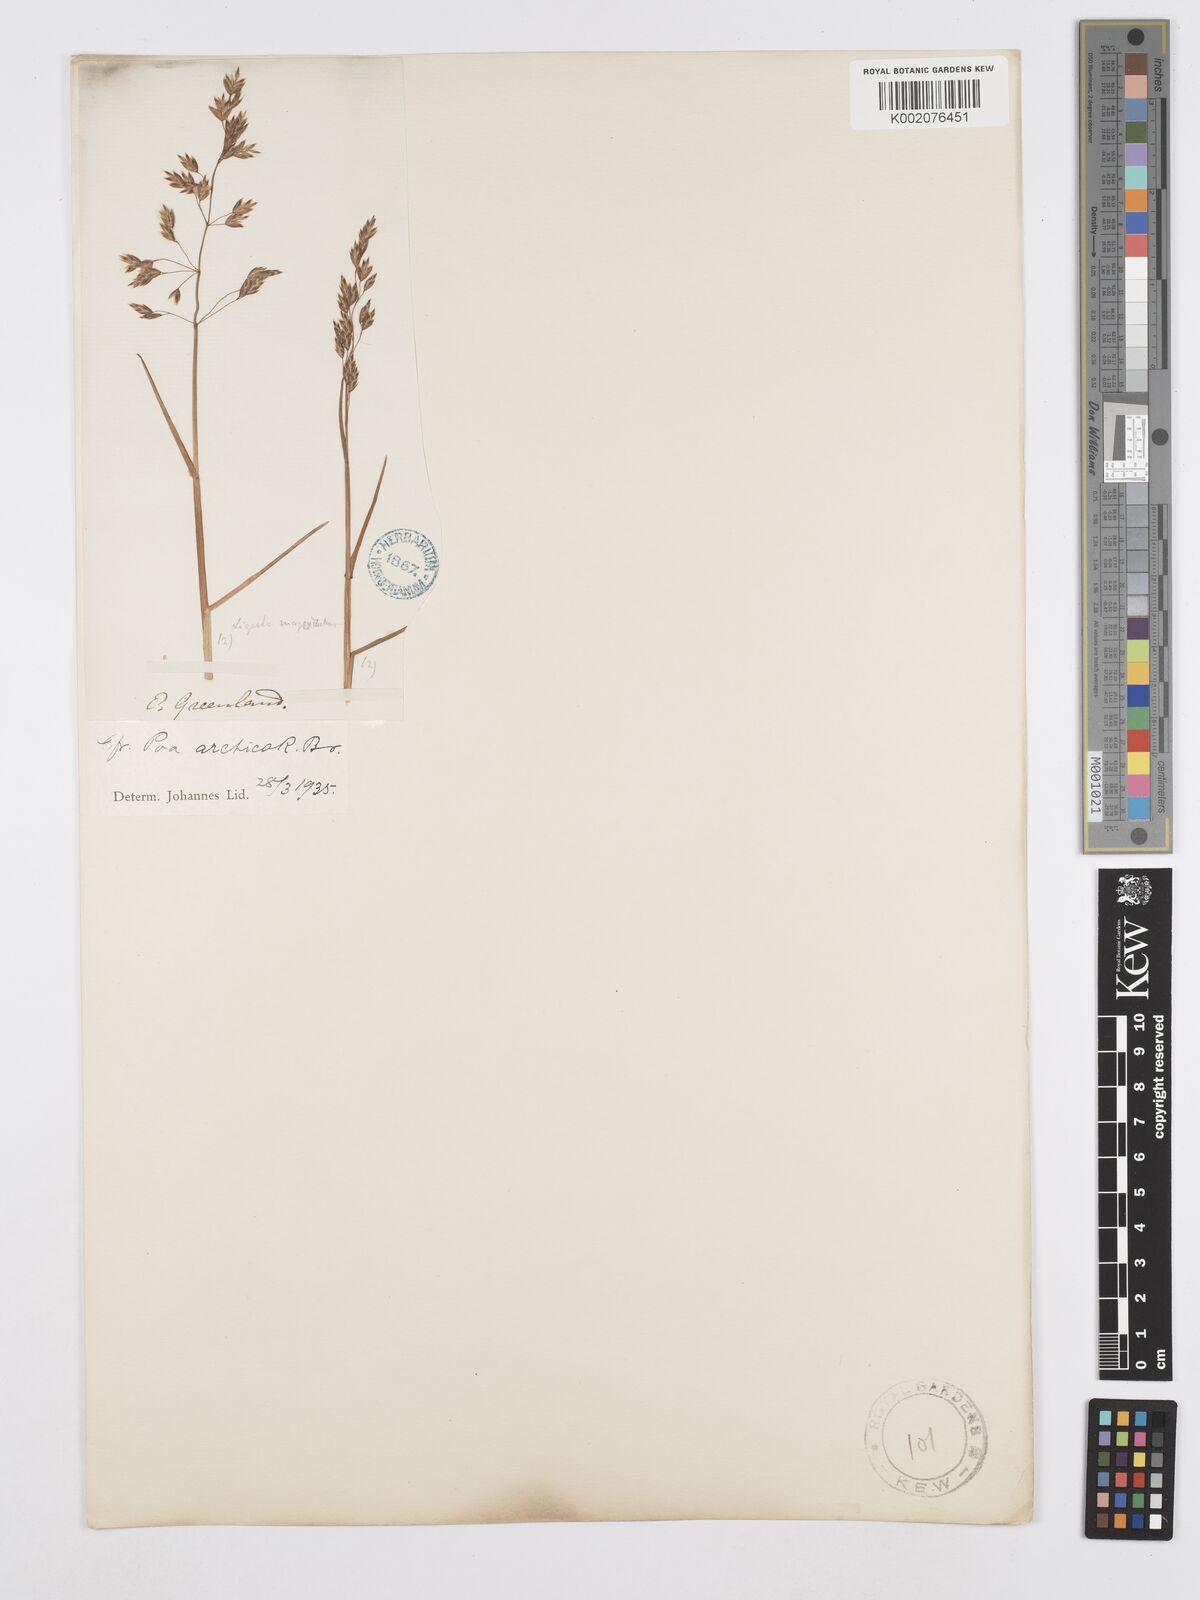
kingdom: Plantae
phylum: Tracheophyta
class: Liliopsida
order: Poales
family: Poaceae
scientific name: Poaceae
